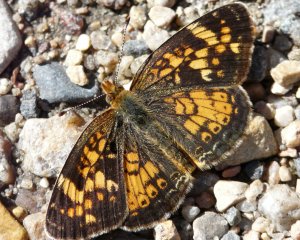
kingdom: Animalia
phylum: Arthropoda
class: Insecta
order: Lepidoptera
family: Nymphalidae
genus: Phyciodes
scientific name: Phyciodes batesii
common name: Tawny Crescent
